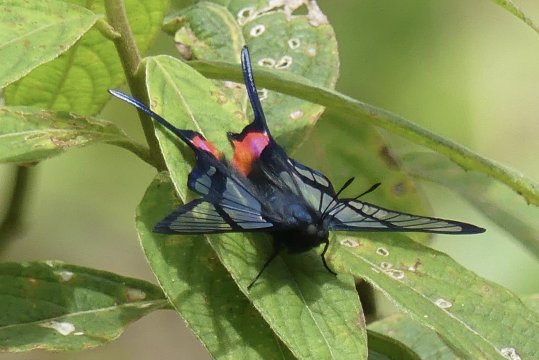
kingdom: Animalia
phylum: Arthropoda
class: Insecta
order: Lepidoptera
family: Riodinidae
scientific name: Riodinidae
